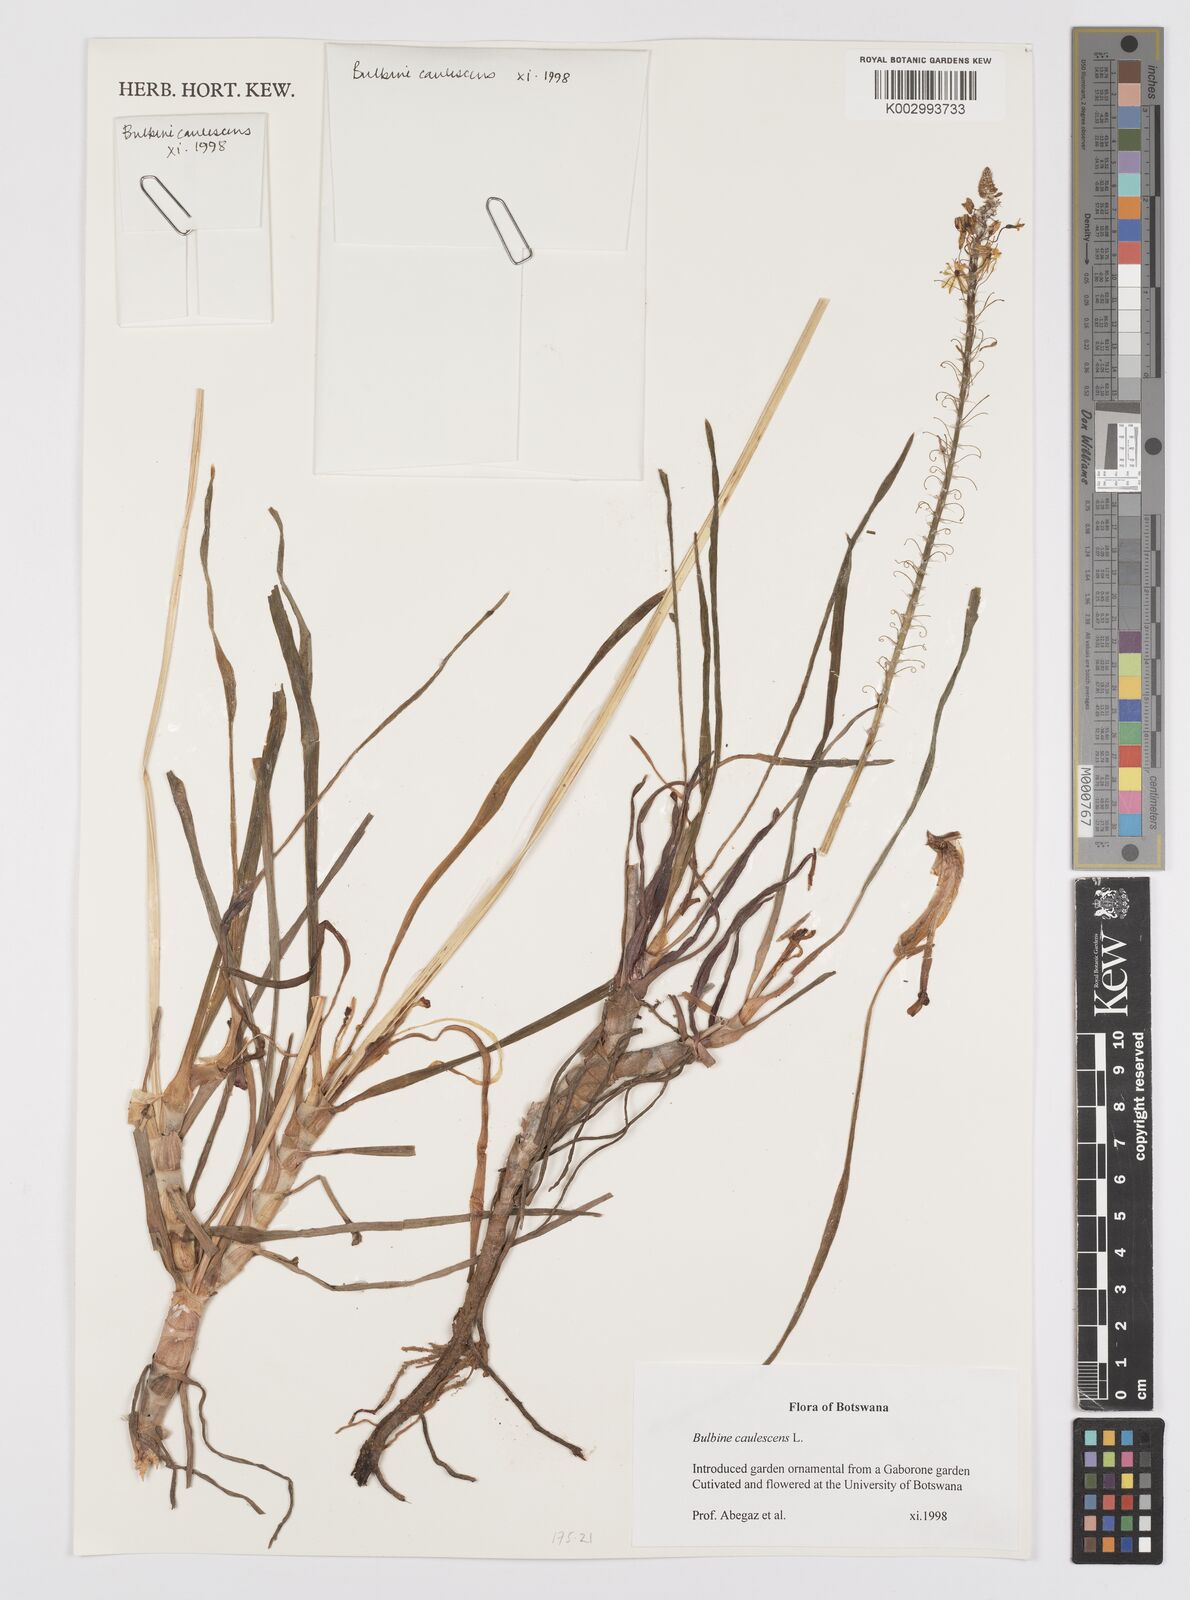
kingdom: Plantae
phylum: Tracheophyta
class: Liliopsida
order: Asparagales
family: Asphodelaceae
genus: Bulbine
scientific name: Bulbine frutescens
